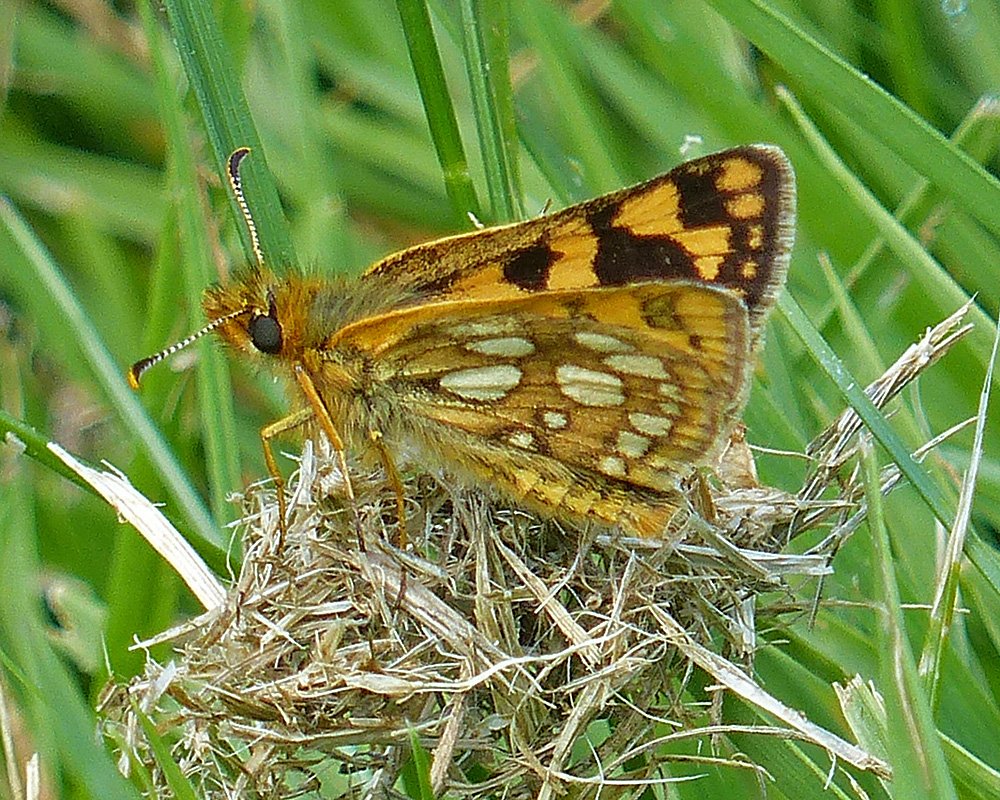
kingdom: Animalia
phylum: Arthropoda
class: Insecta
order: Lepidoptera
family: Hesperiidae
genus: Carterocephalus
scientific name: Carterocephalus palaemon
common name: Chequered Skipper
